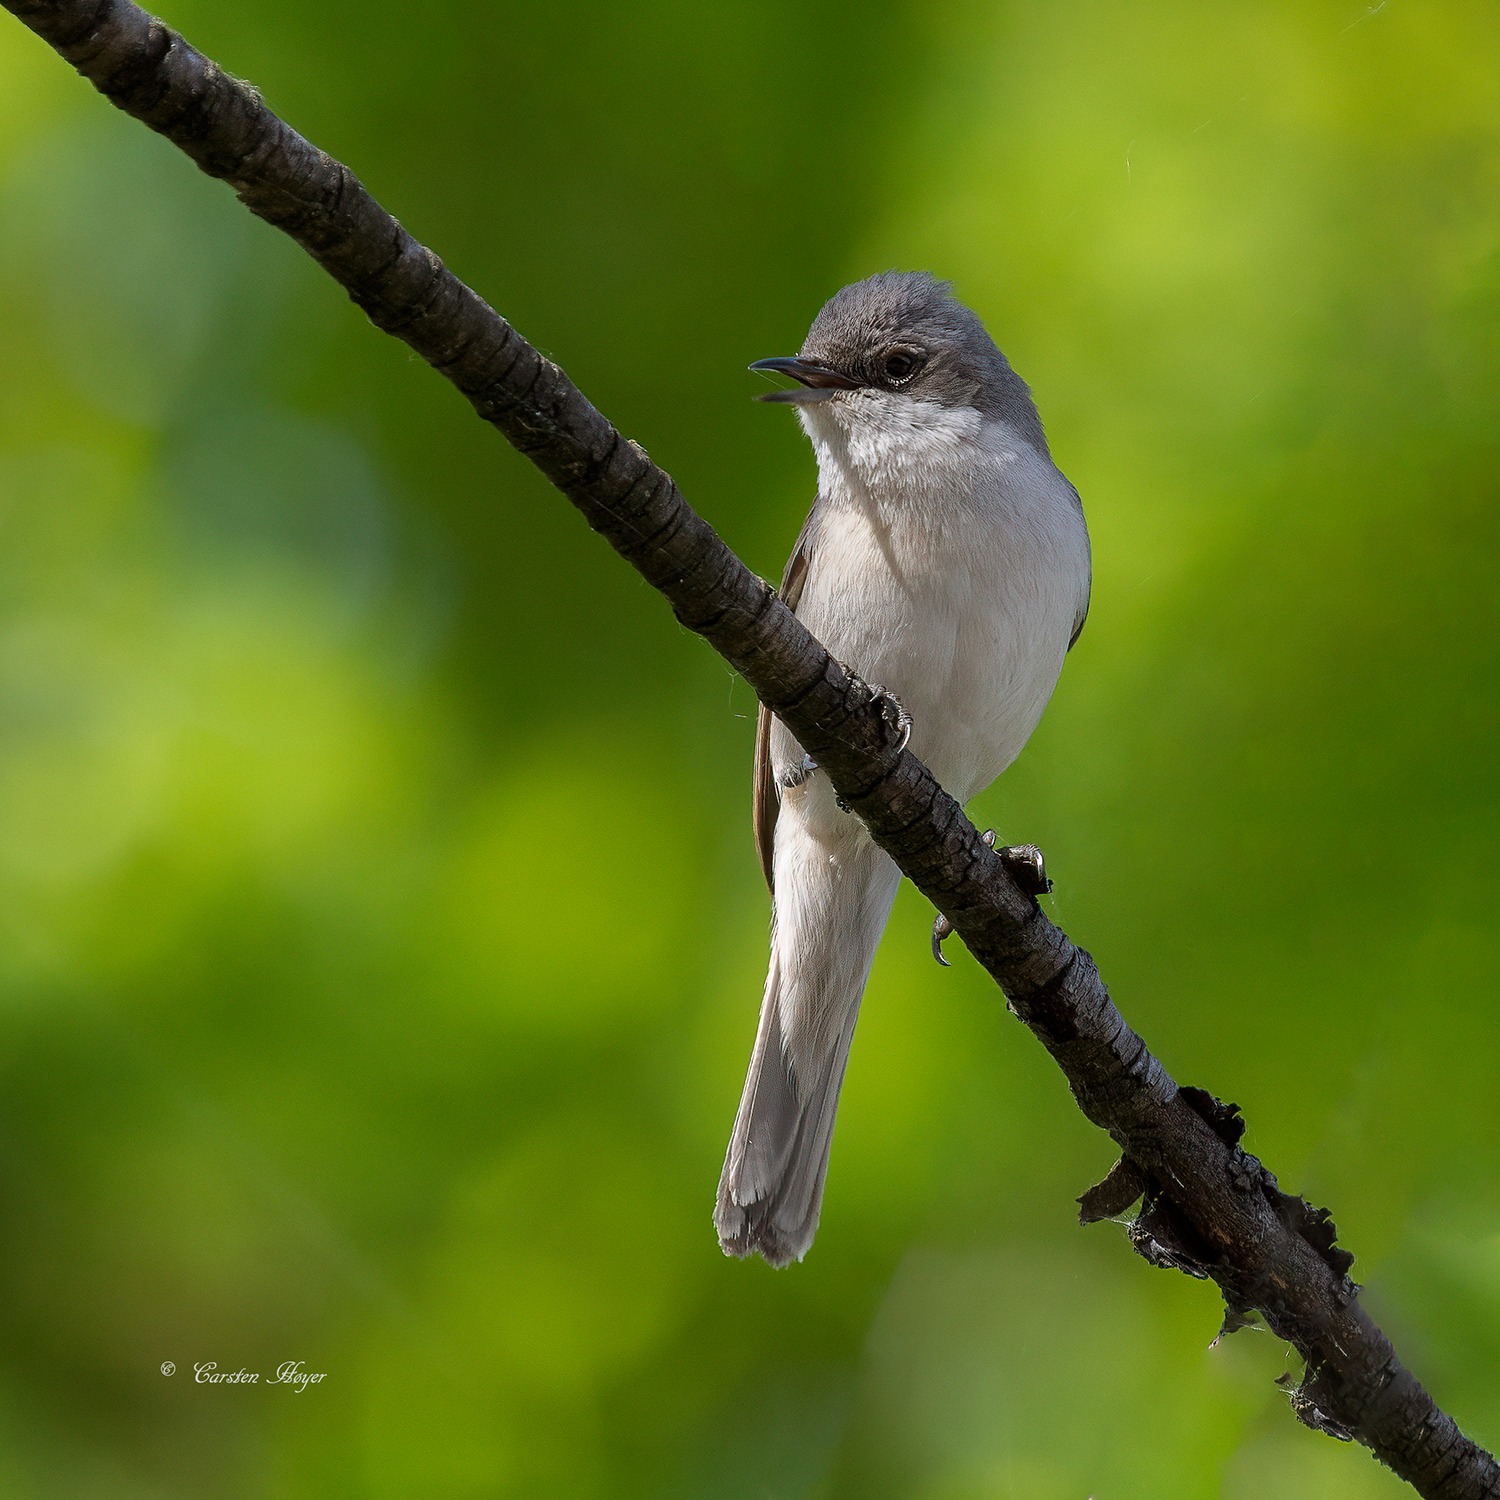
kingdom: Animalia
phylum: Chordata
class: Aves
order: Passeriformes
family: Sylviidae
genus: Sylvia
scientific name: Sylvia curruca
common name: Gærdesanger
